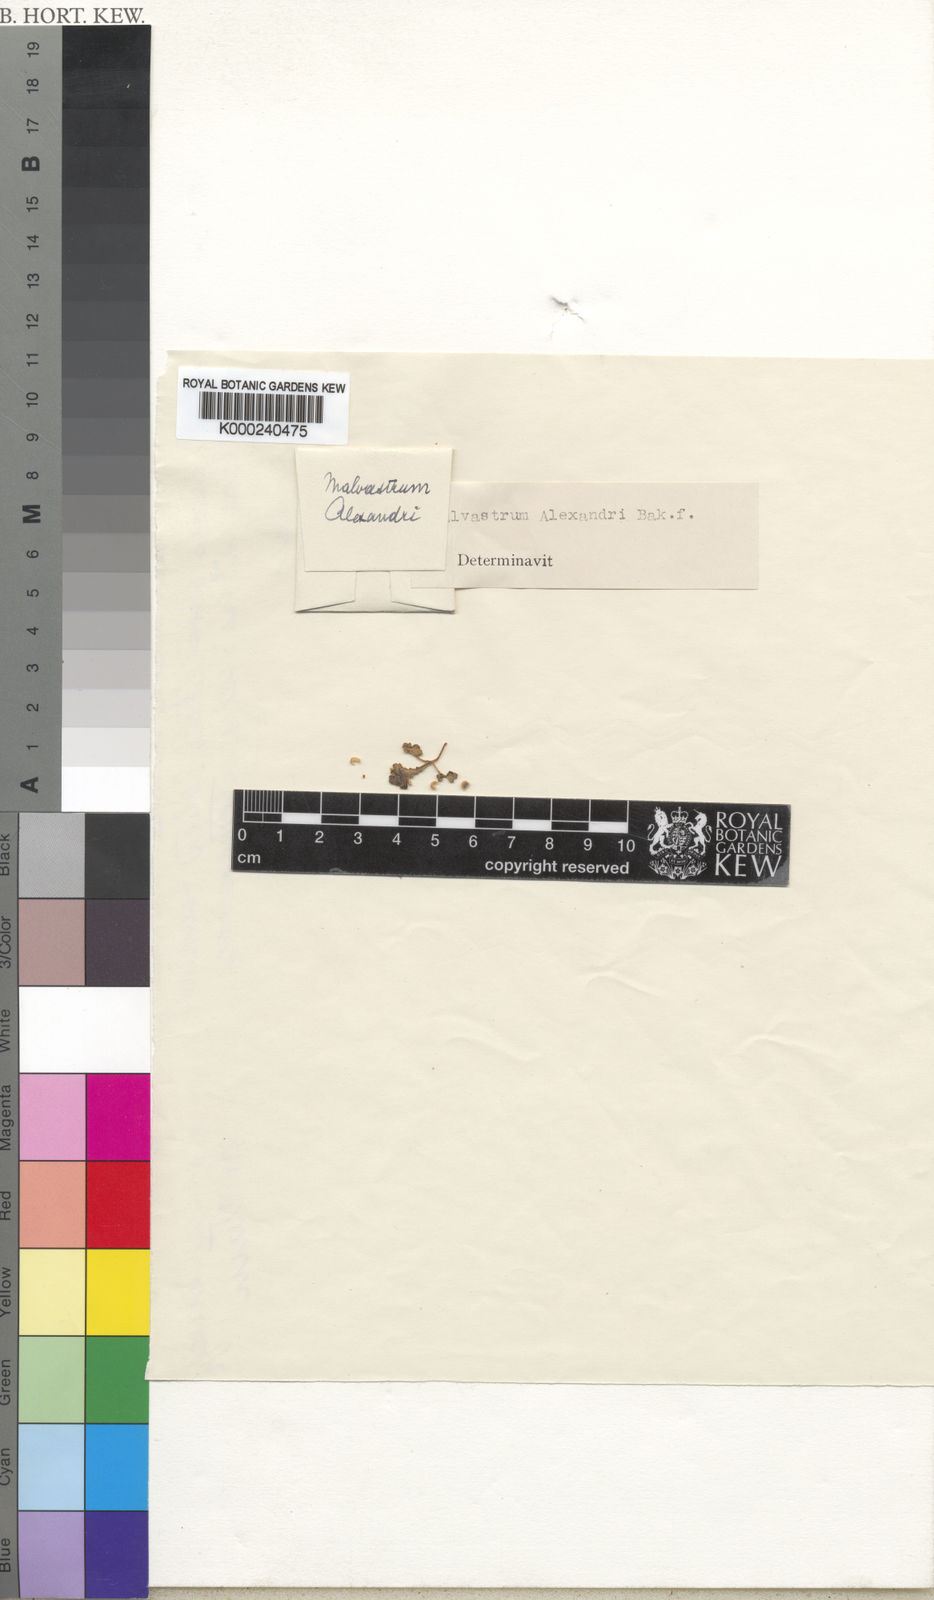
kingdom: Plantae
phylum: Tracheophyta
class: Magnoliopsida
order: Malvales
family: Malvaceae
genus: Anisodontea
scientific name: Anisodontea alexandri
